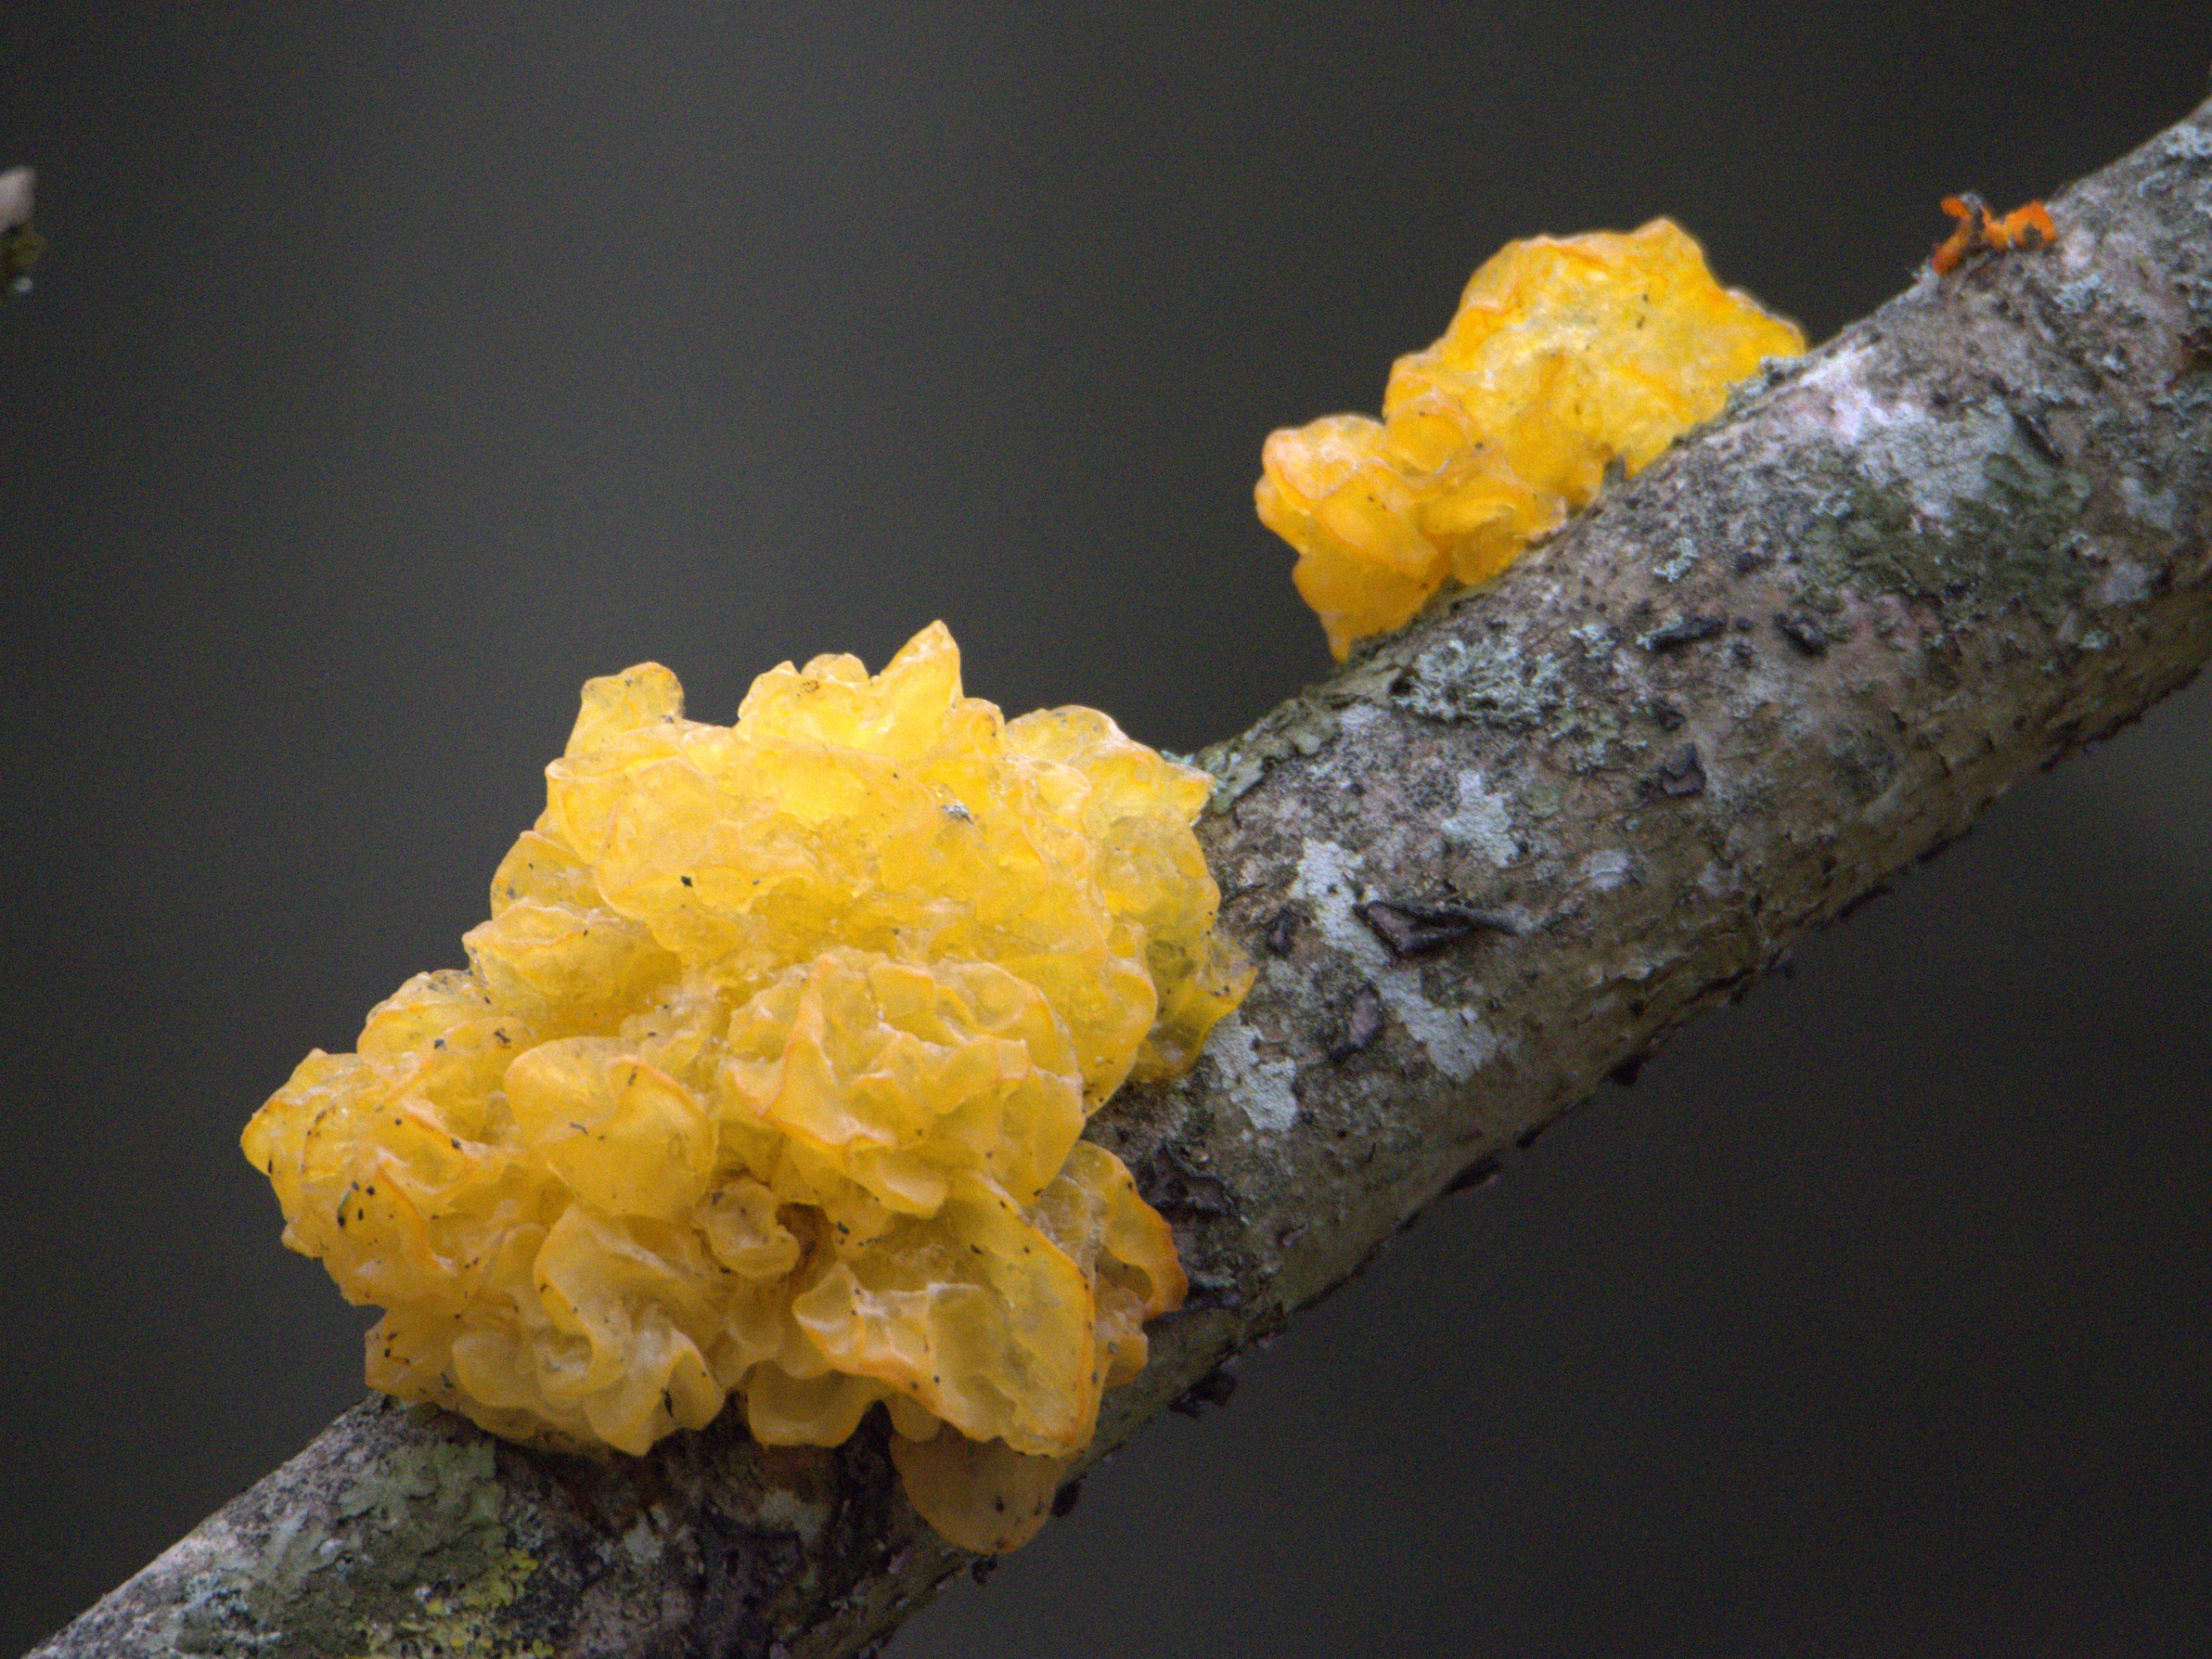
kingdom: Fungi
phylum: Basidiomycota
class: Tremellomycetes
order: Tremellales
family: Tremellaceae
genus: Tremella
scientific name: Tremella mesenterica
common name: Gul bævresvamp
